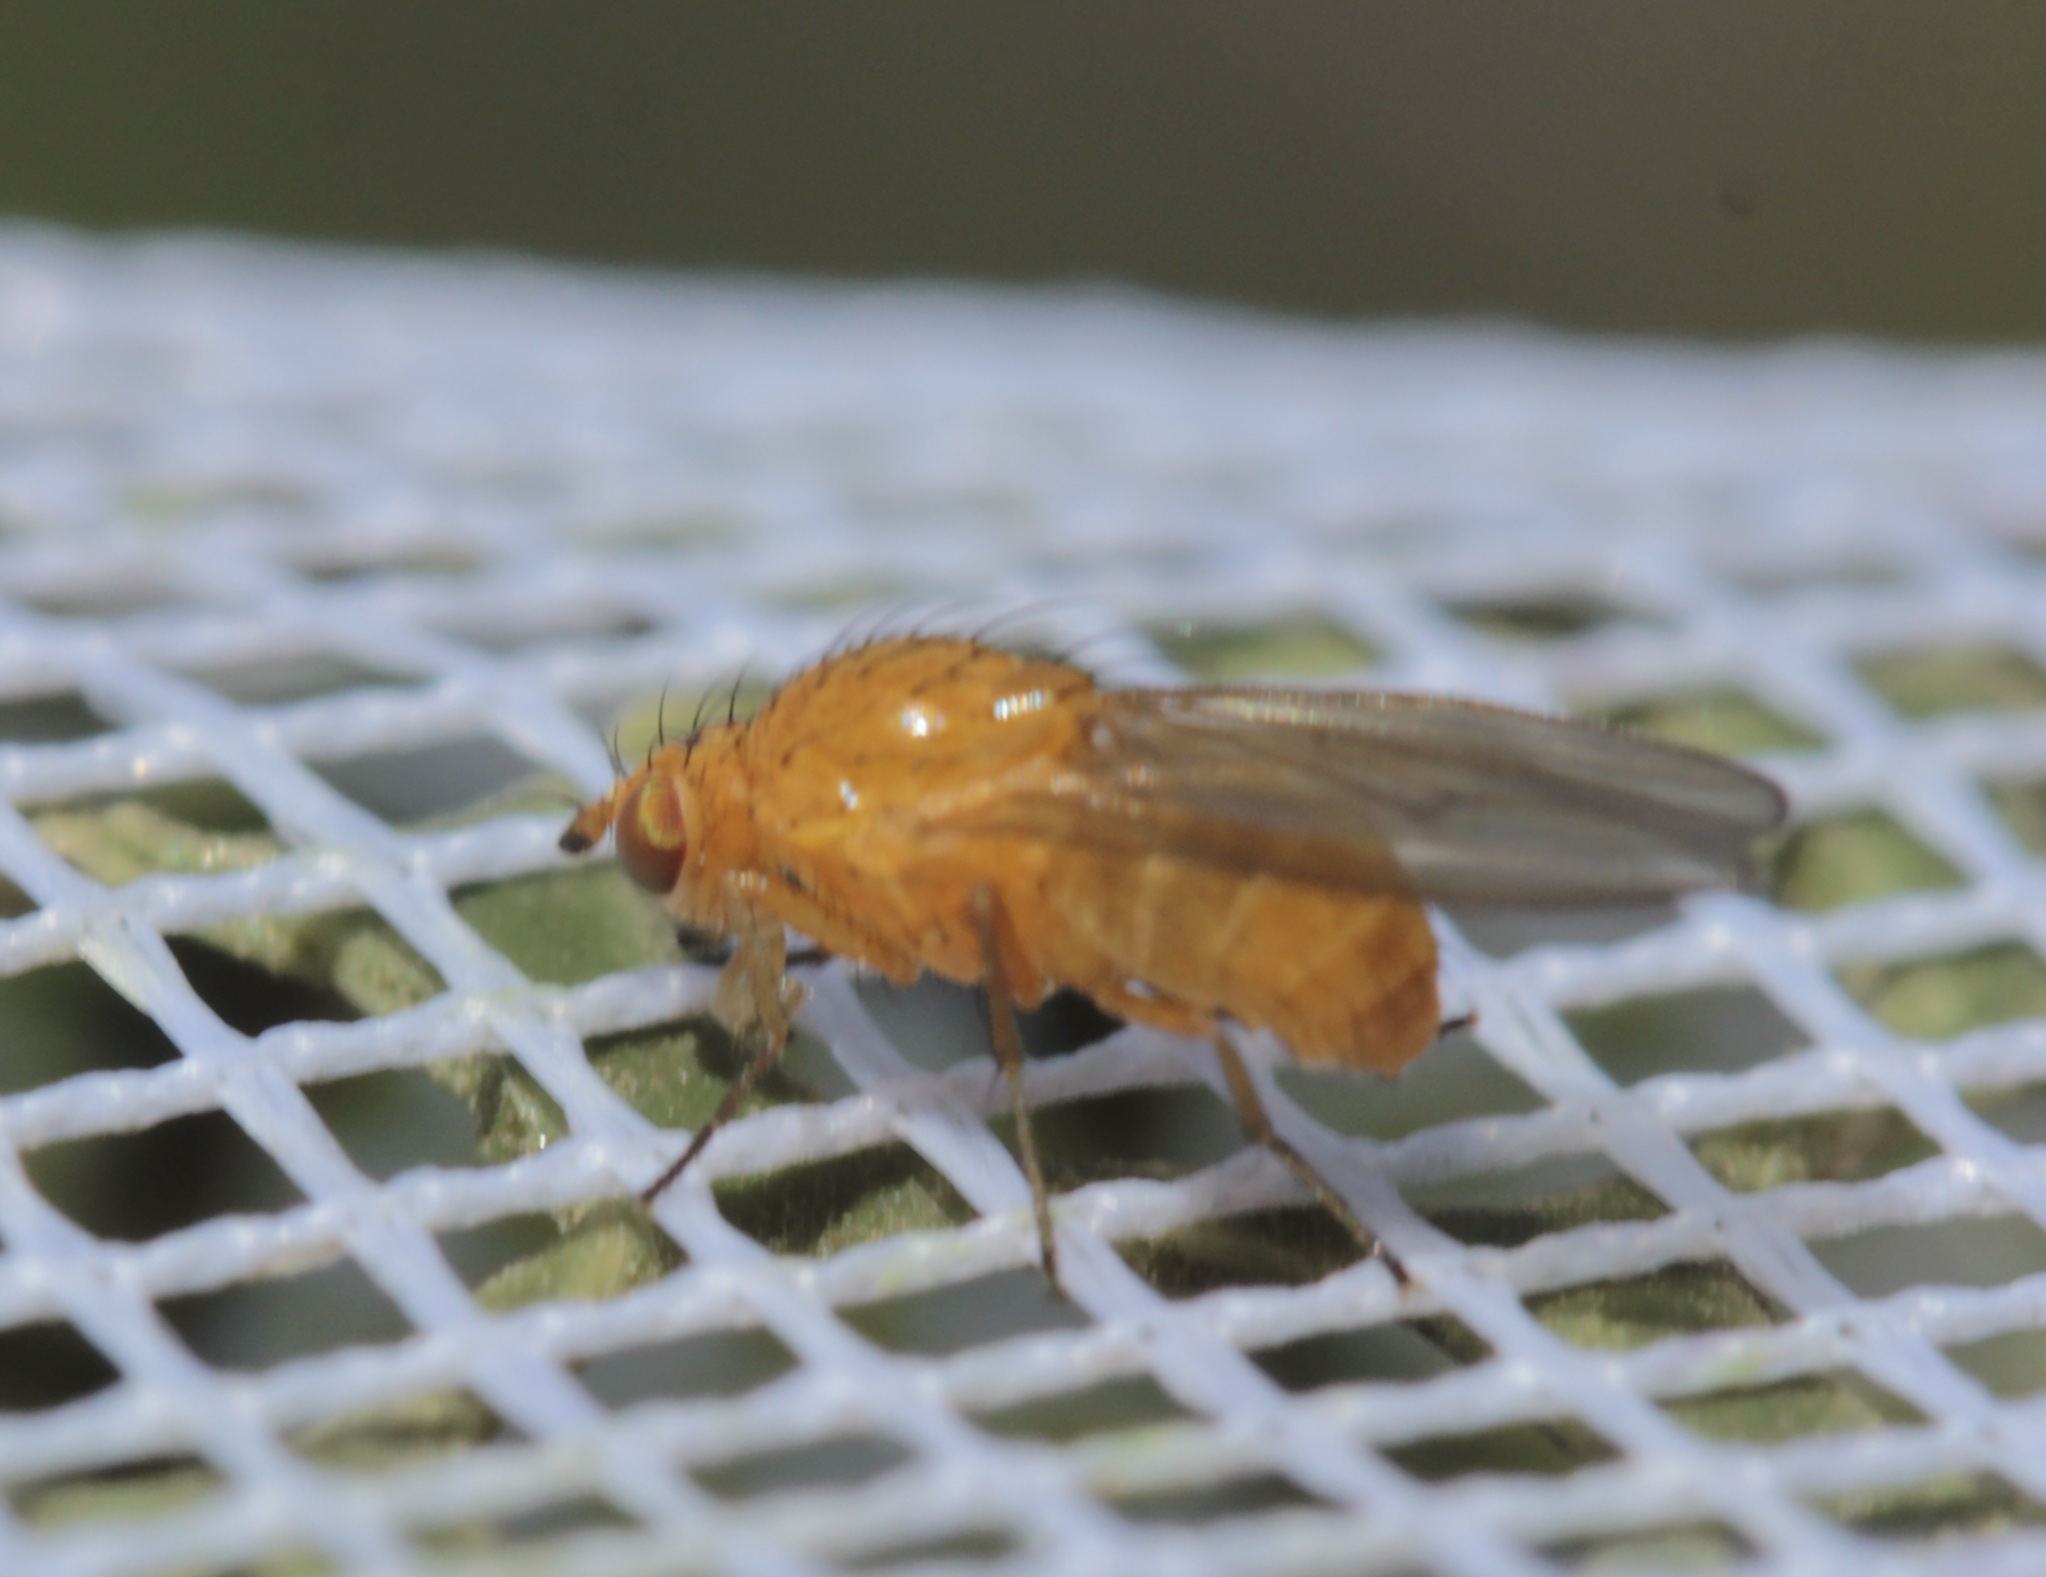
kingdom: Animalia
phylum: Arthropoda
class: Insecta
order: Diptera
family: Lauxaniidae
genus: Meiosimyza
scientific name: Meiosimyza
